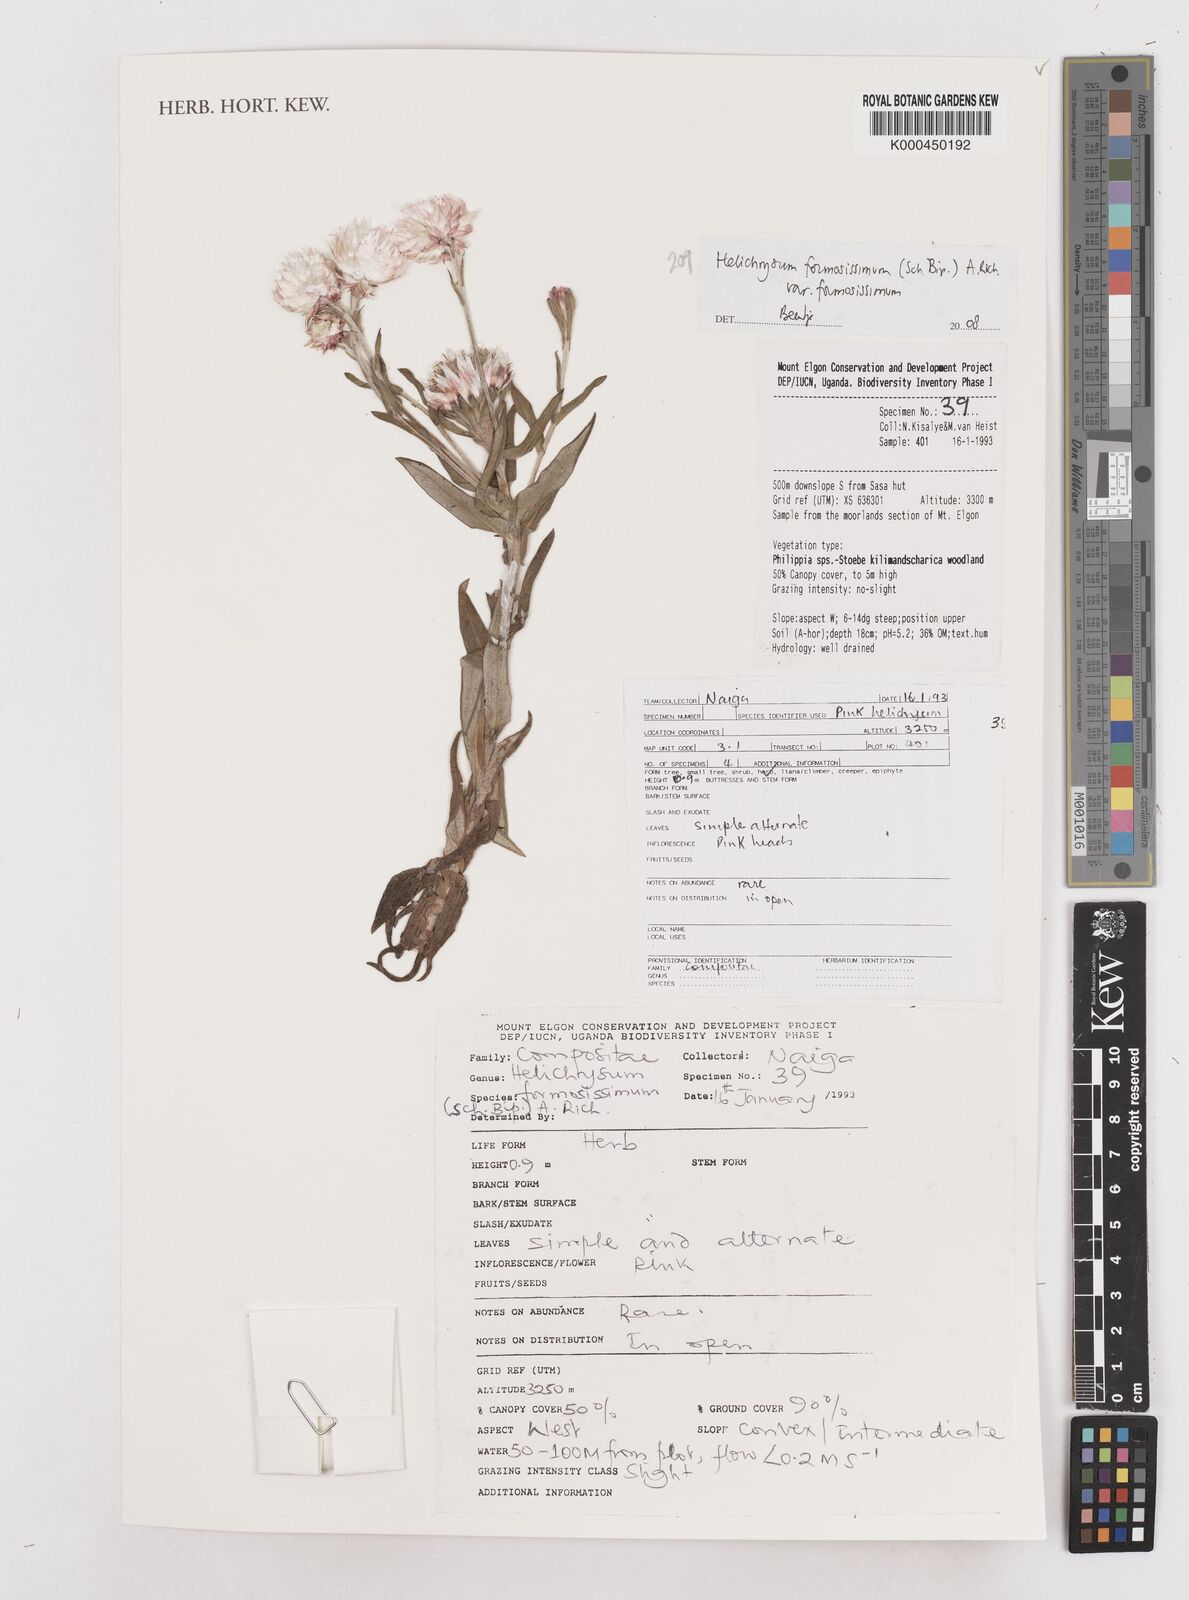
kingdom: Plantae
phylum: Tracheophyta
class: Magnoliopsida
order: Asterales
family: Asteraceae
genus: Helichrysum
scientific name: Helichrysum
